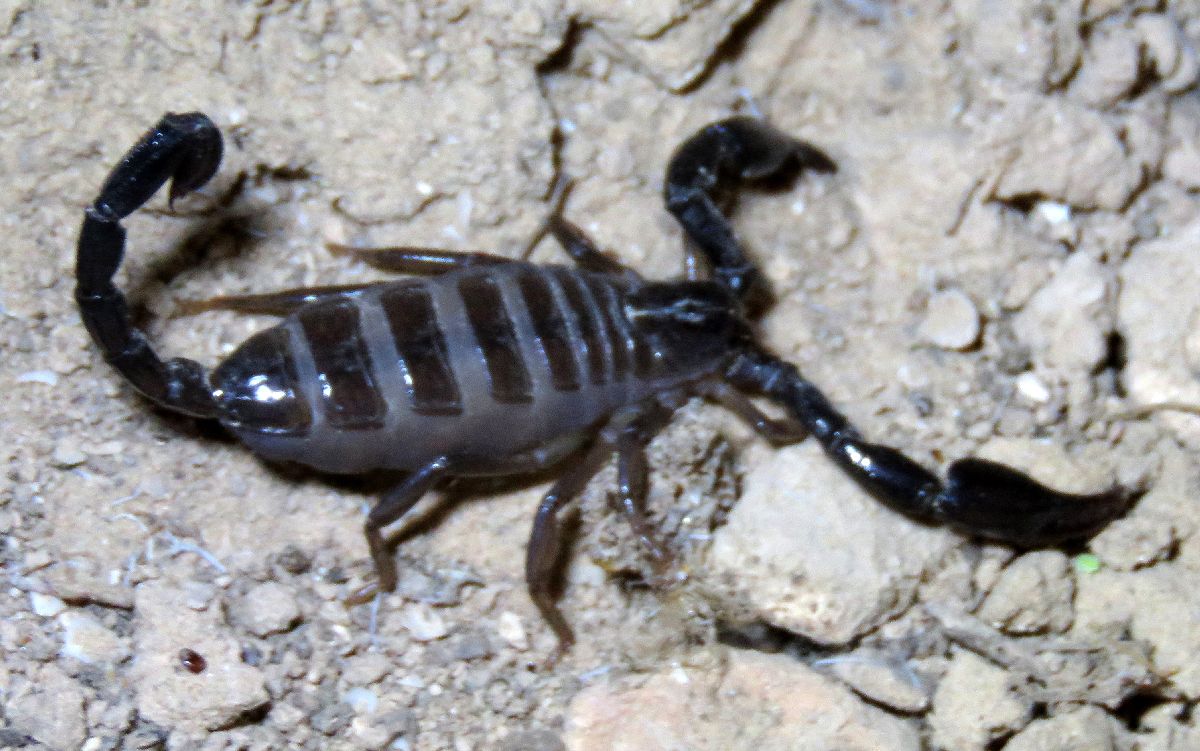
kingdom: Animalia
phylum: Arthropoda
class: Arachnida
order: Scorpiones
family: Diplocentridae
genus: Nebo
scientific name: Nebo hierichonticus
